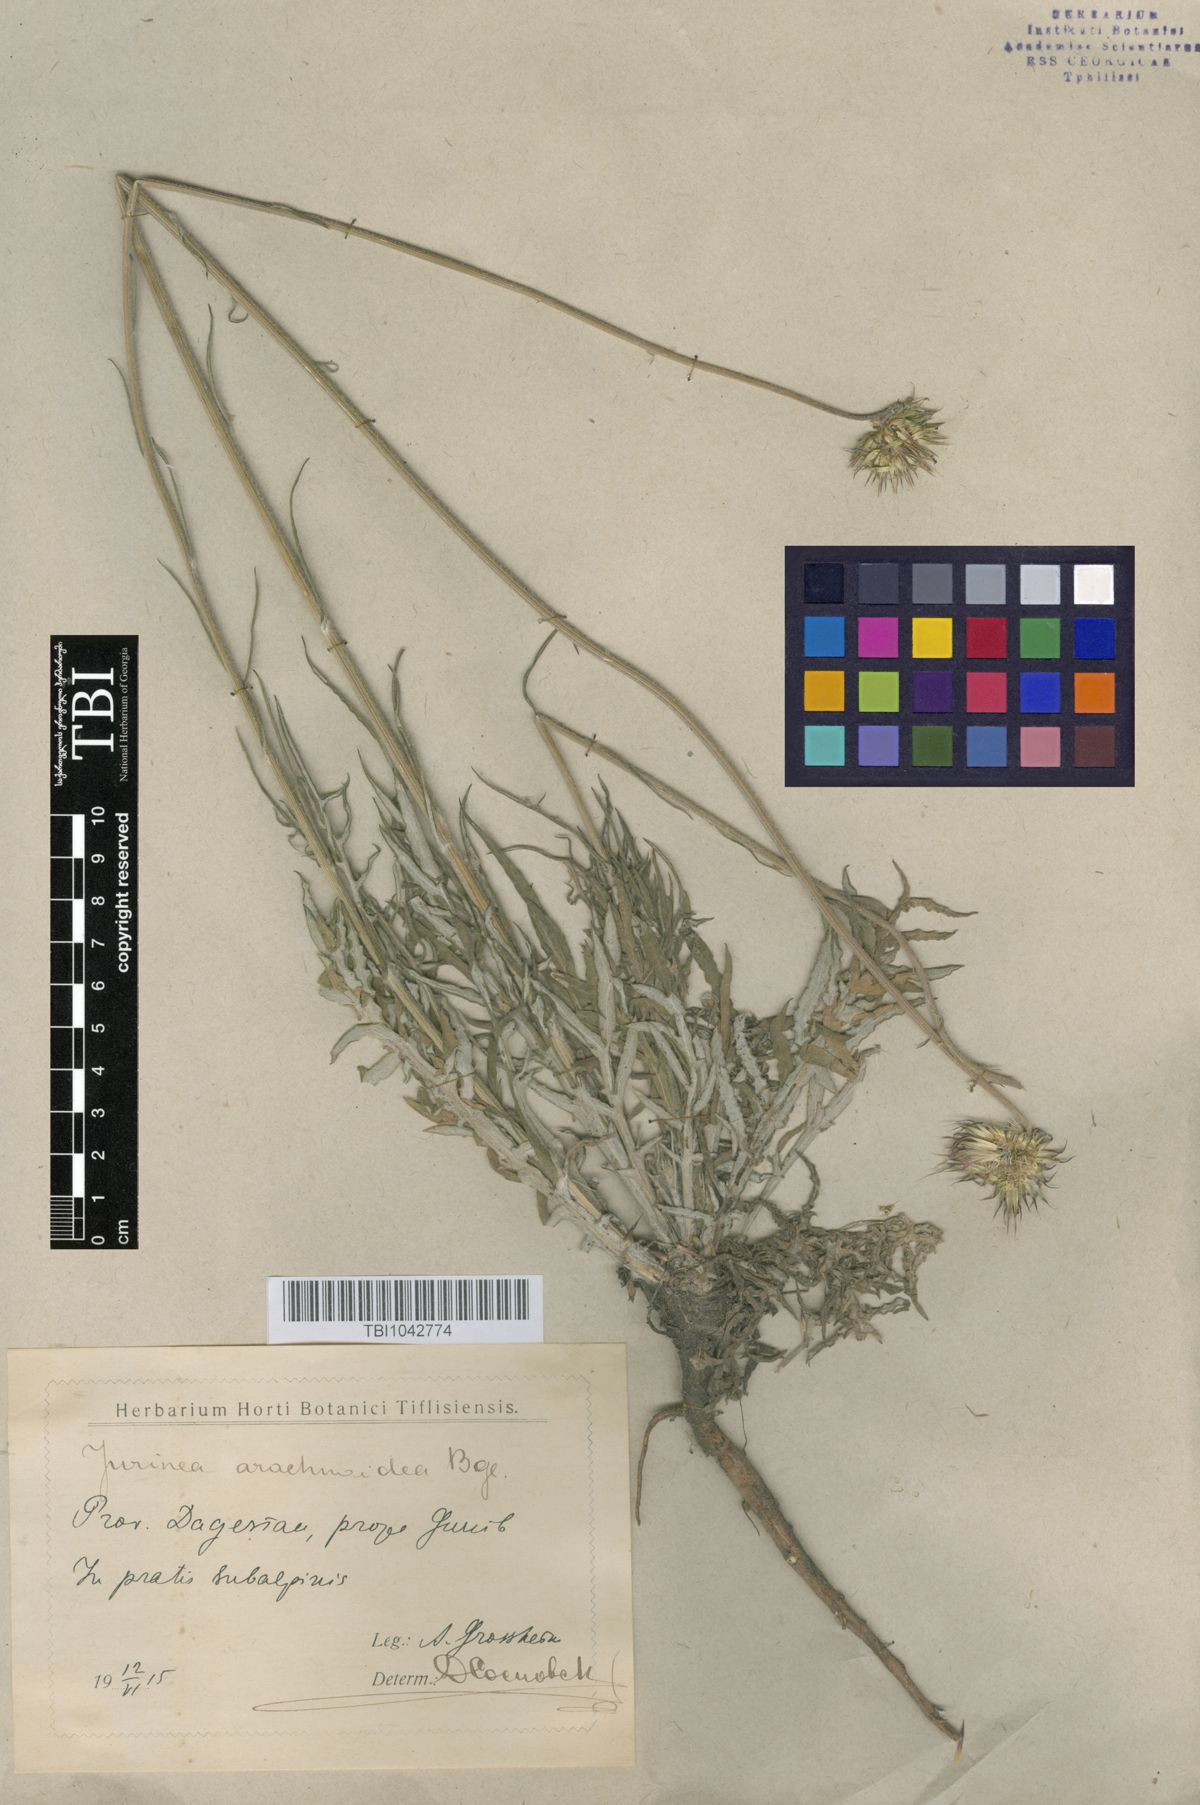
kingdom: Plantae
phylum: Tracheophyta
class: Magnoliopsida
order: Asterales
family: Asteraceae
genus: Jurinea
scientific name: Jurinea blanda
